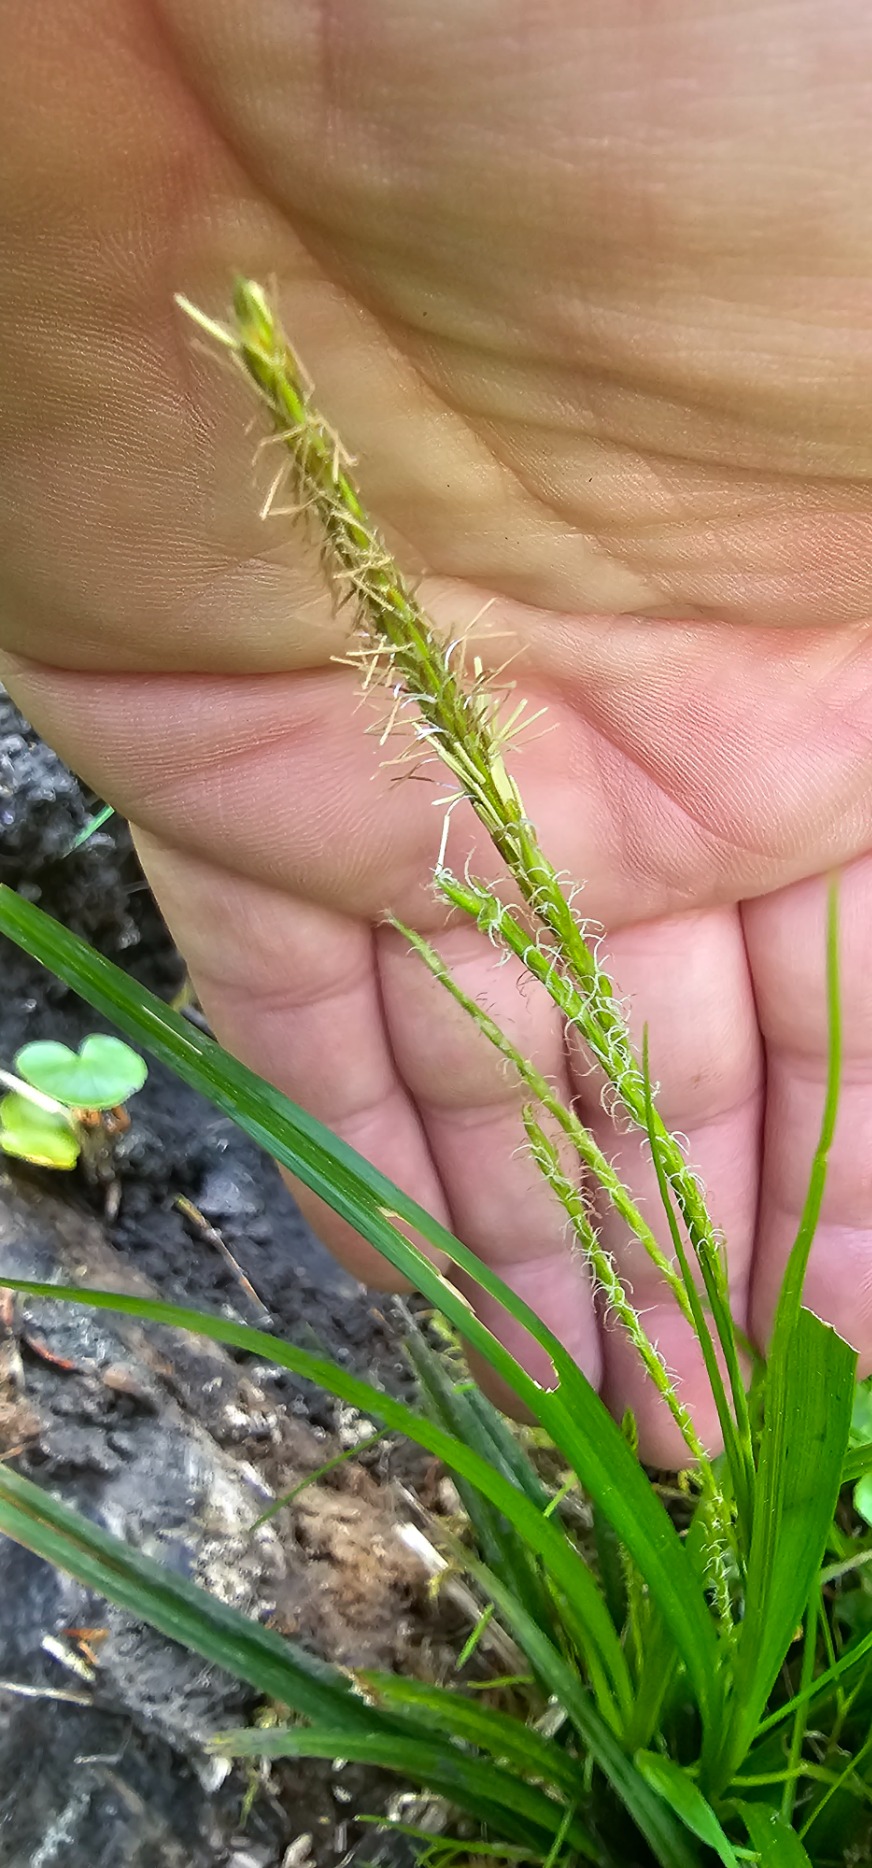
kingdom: Plantae
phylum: Tracheophyta
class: Liliopsida
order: Poales
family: Cyperaceae
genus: Carex
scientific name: Carex sylvatica
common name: Skov-star
